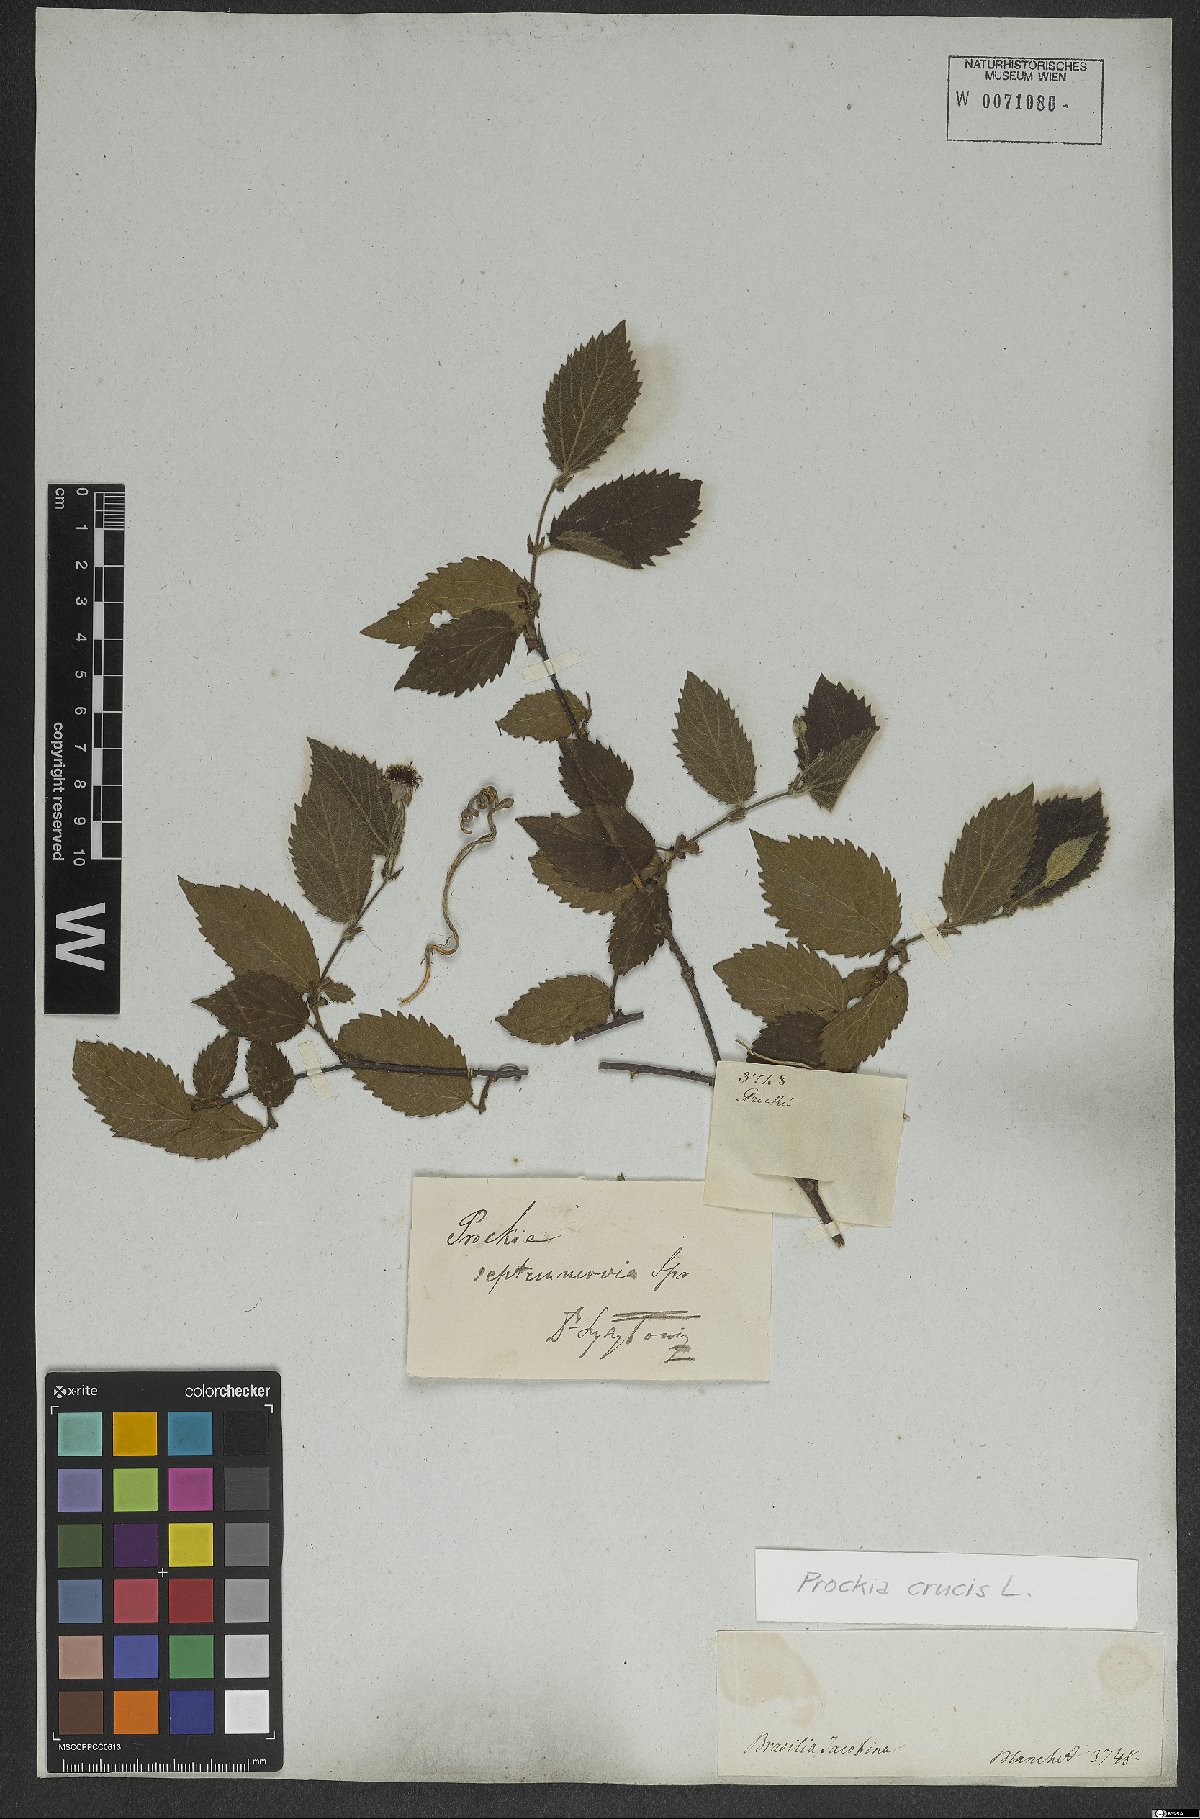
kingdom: Plantae
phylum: Tracheophyta
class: Magnoliopsida
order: Malpighiales
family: Salicaceae
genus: Prockia
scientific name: Prockia crucis
